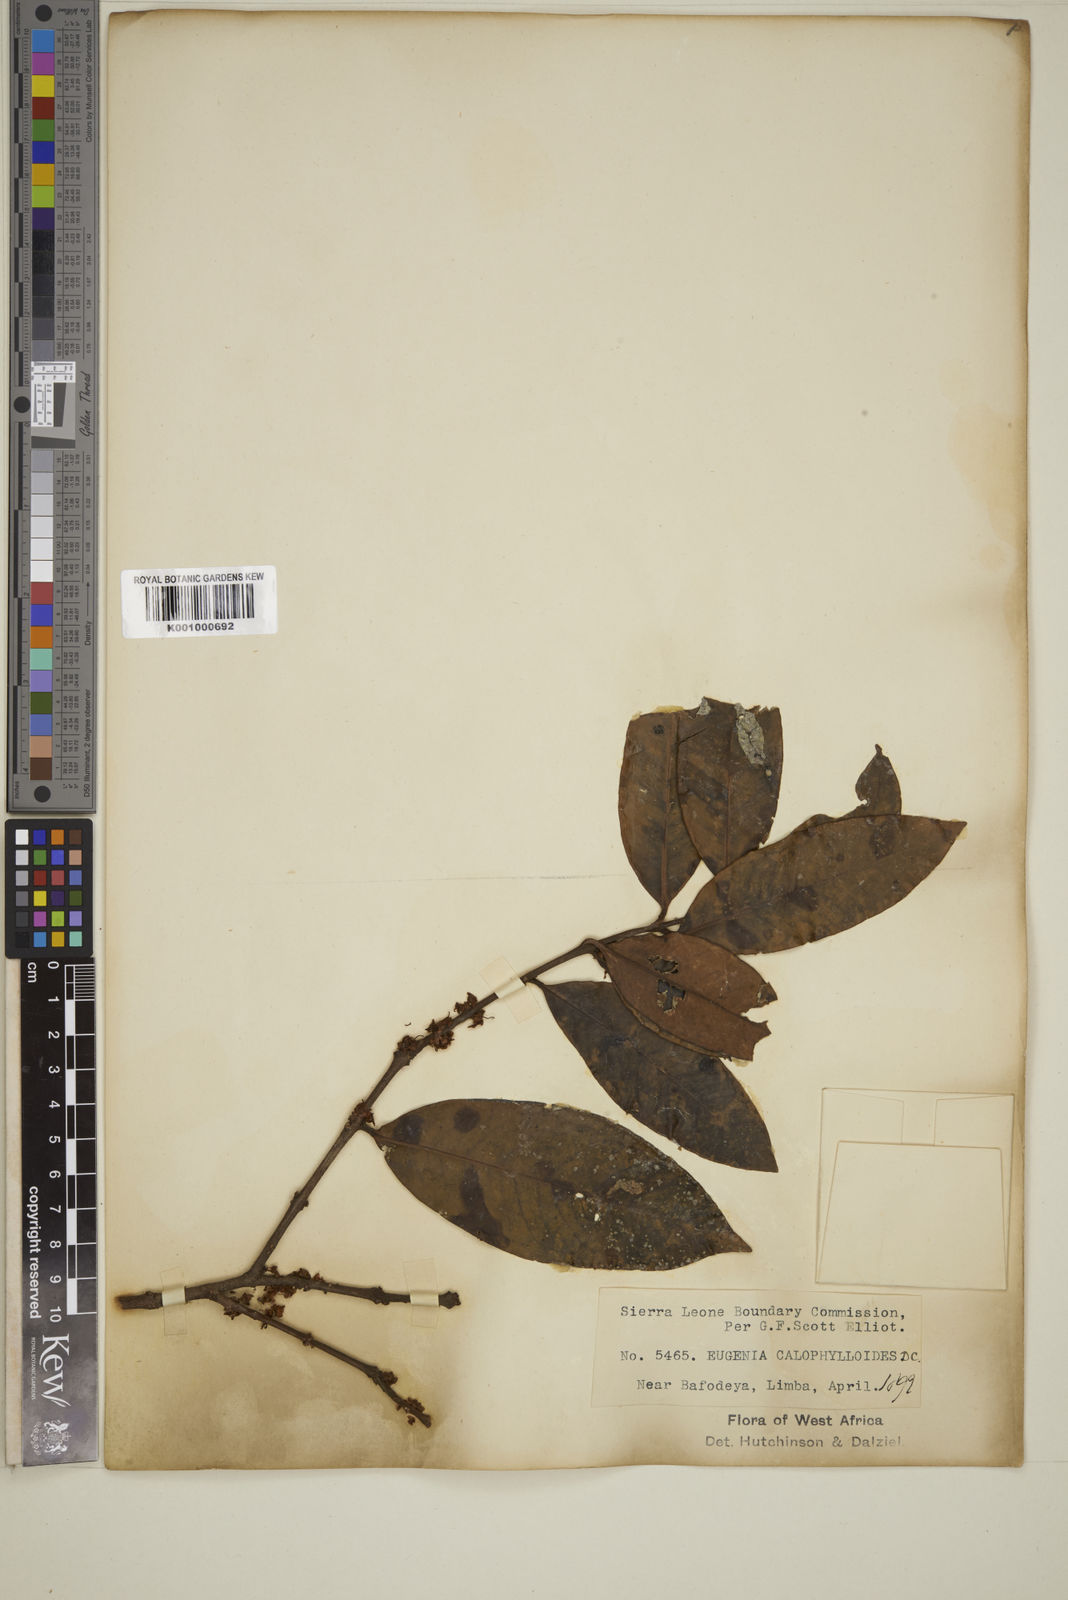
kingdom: Plantae
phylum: Tracheophyta
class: Magnoliopsida
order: Myrtales
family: Myrtaceae
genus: Eugenia
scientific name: Eugenia calophylloides
